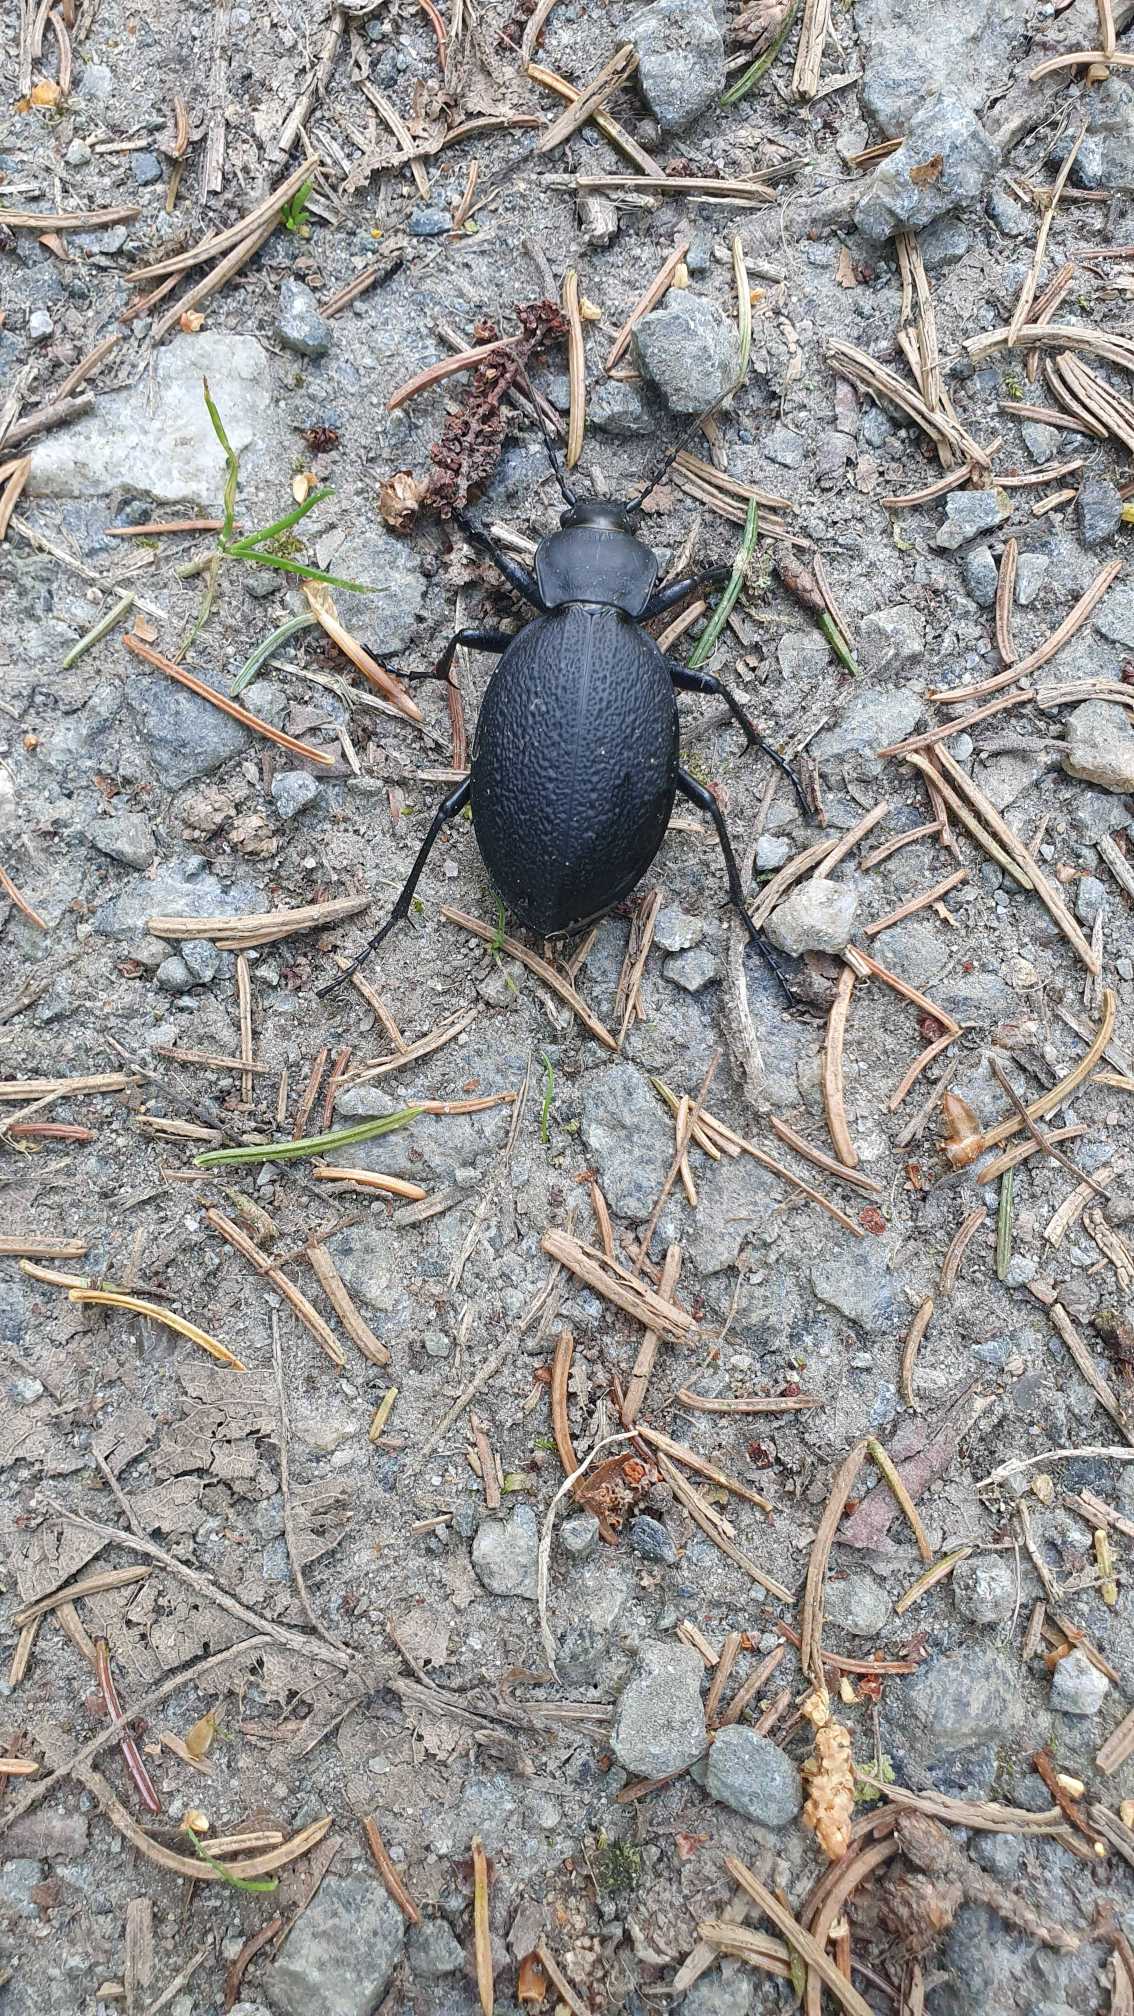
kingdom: Animalia
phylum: Arthropoda
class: Insecta
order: Coleoptera
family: Carabidae
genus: Carabus
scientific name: Carabus coriaceus
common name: Læderløber
